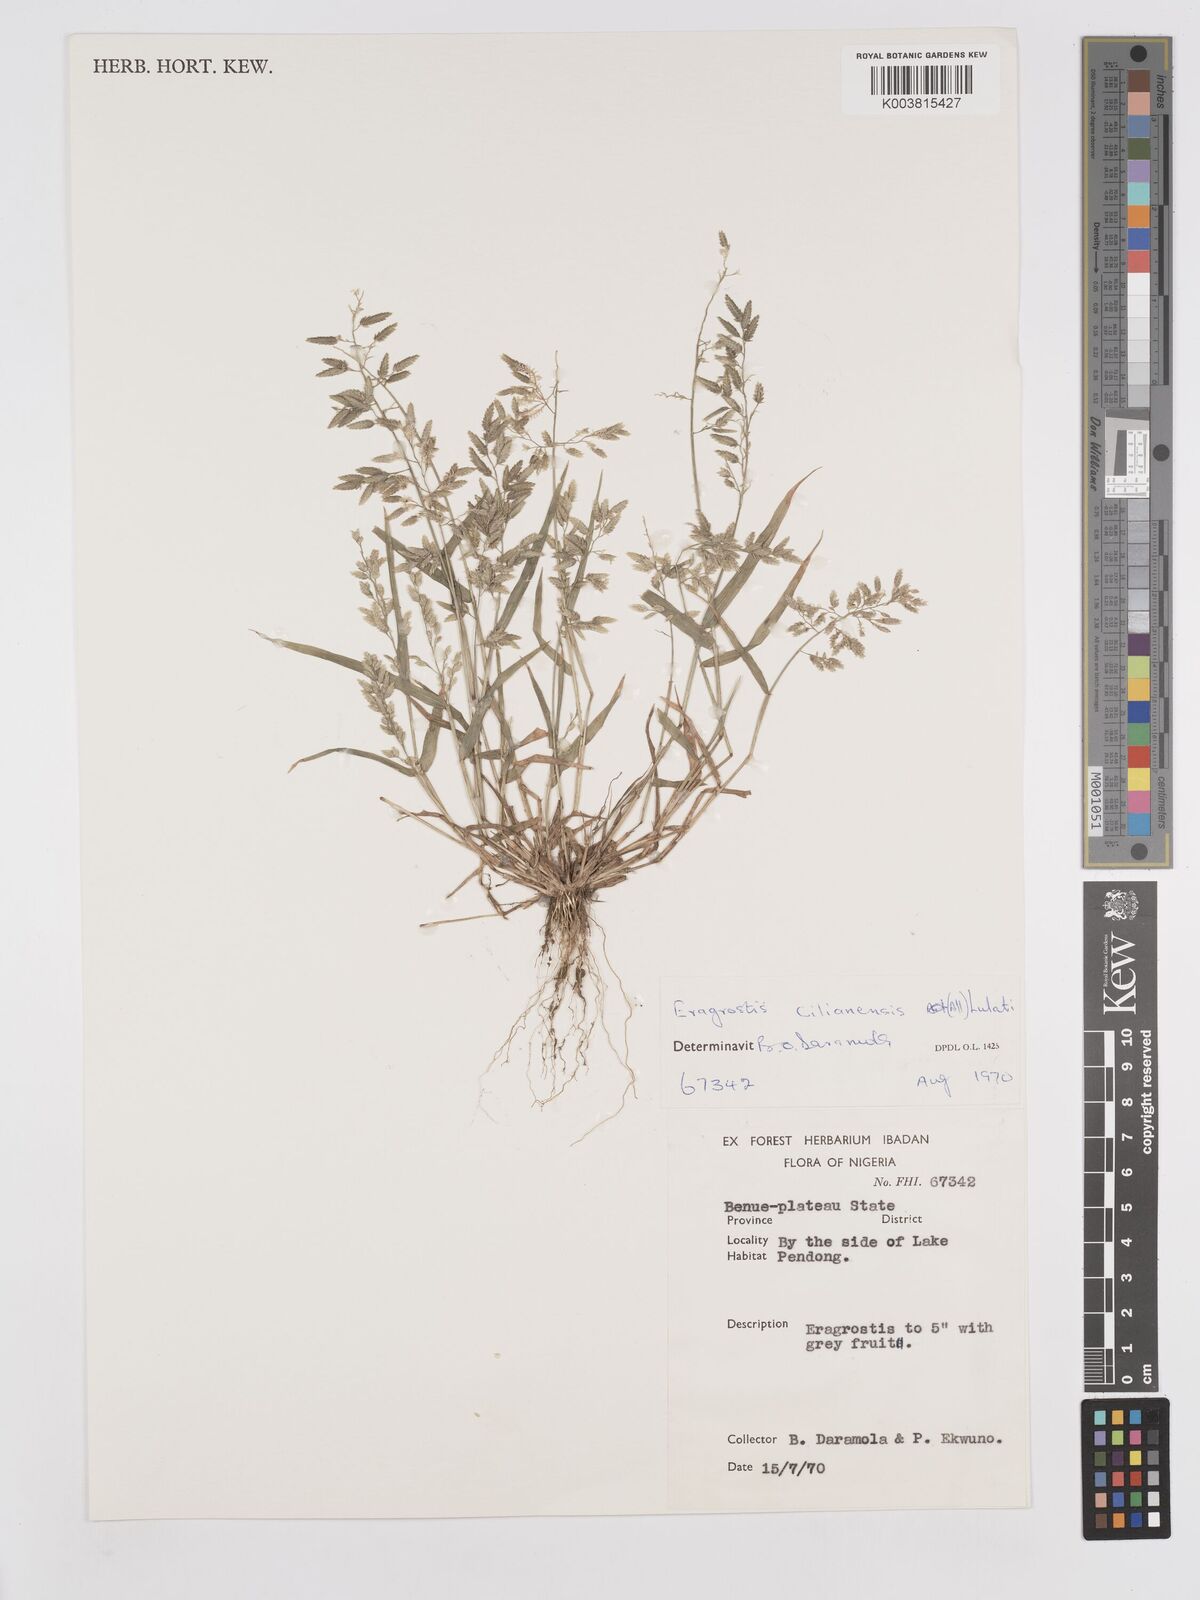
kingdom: Plantae
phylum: Tracheophyta
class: Liliopsida
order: Poales
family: Poaceae
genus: Eragrostis
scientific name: Eragrostis cilianensis
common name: Stinkgrass
